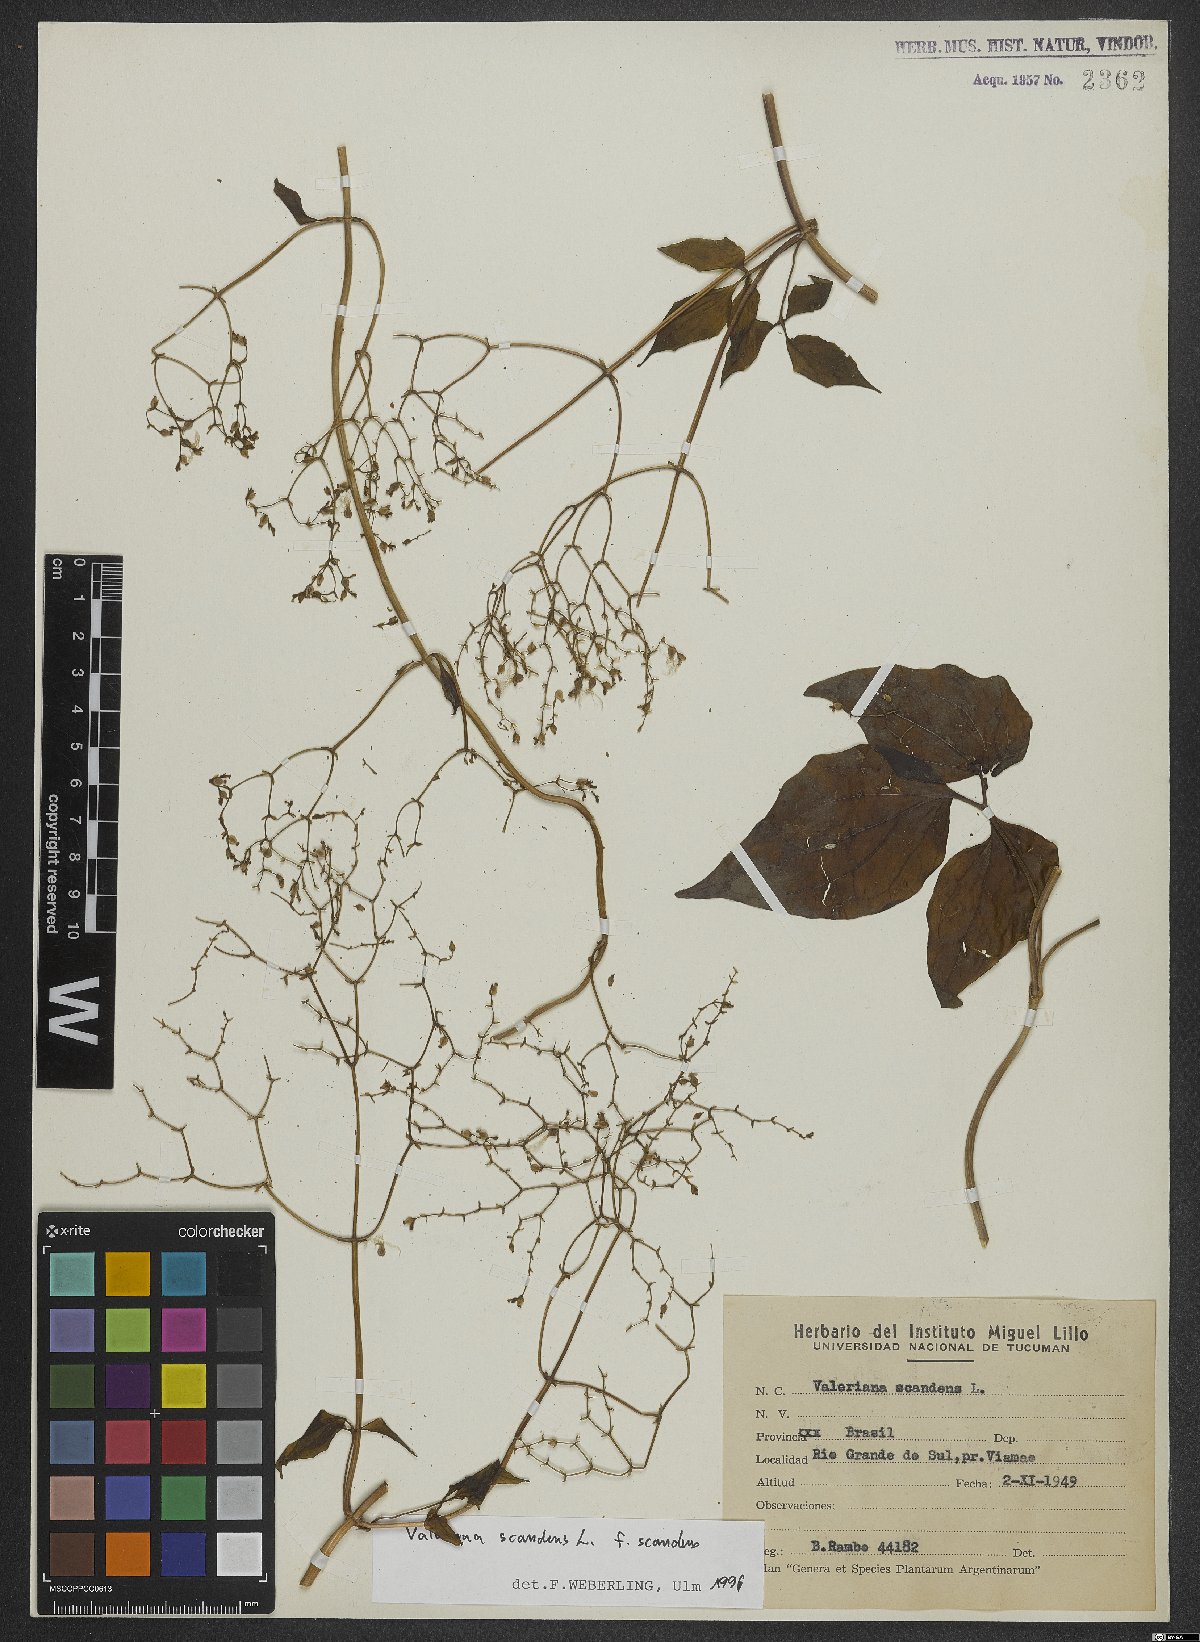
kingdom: Plantae
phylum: Tracheophyta
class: Magnoliopsida
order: Dipsacales
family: Caprifoliaceae
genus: Valeriana
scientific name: Valeriana scandens
